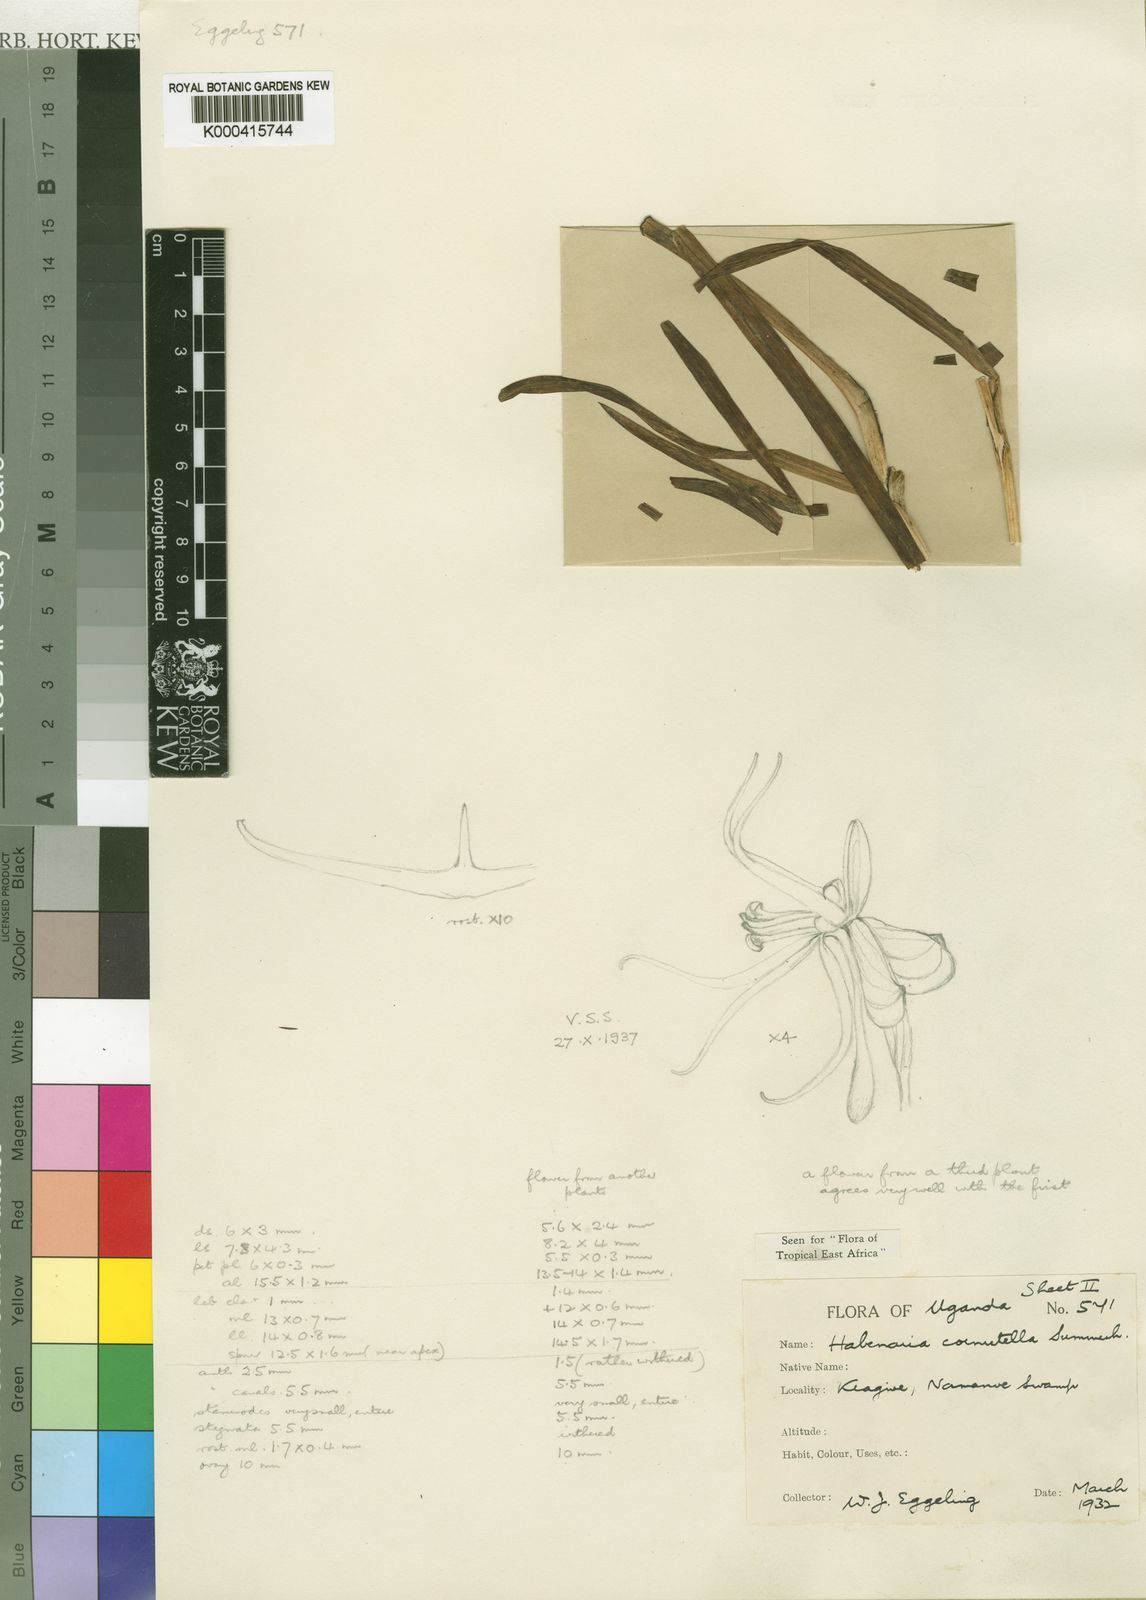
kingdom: Plantae
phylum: Tracheophyta
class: Liliopsida
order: Asparagales
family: Orchidaceae
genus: Habenaria
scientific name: Habenaria cornutella
